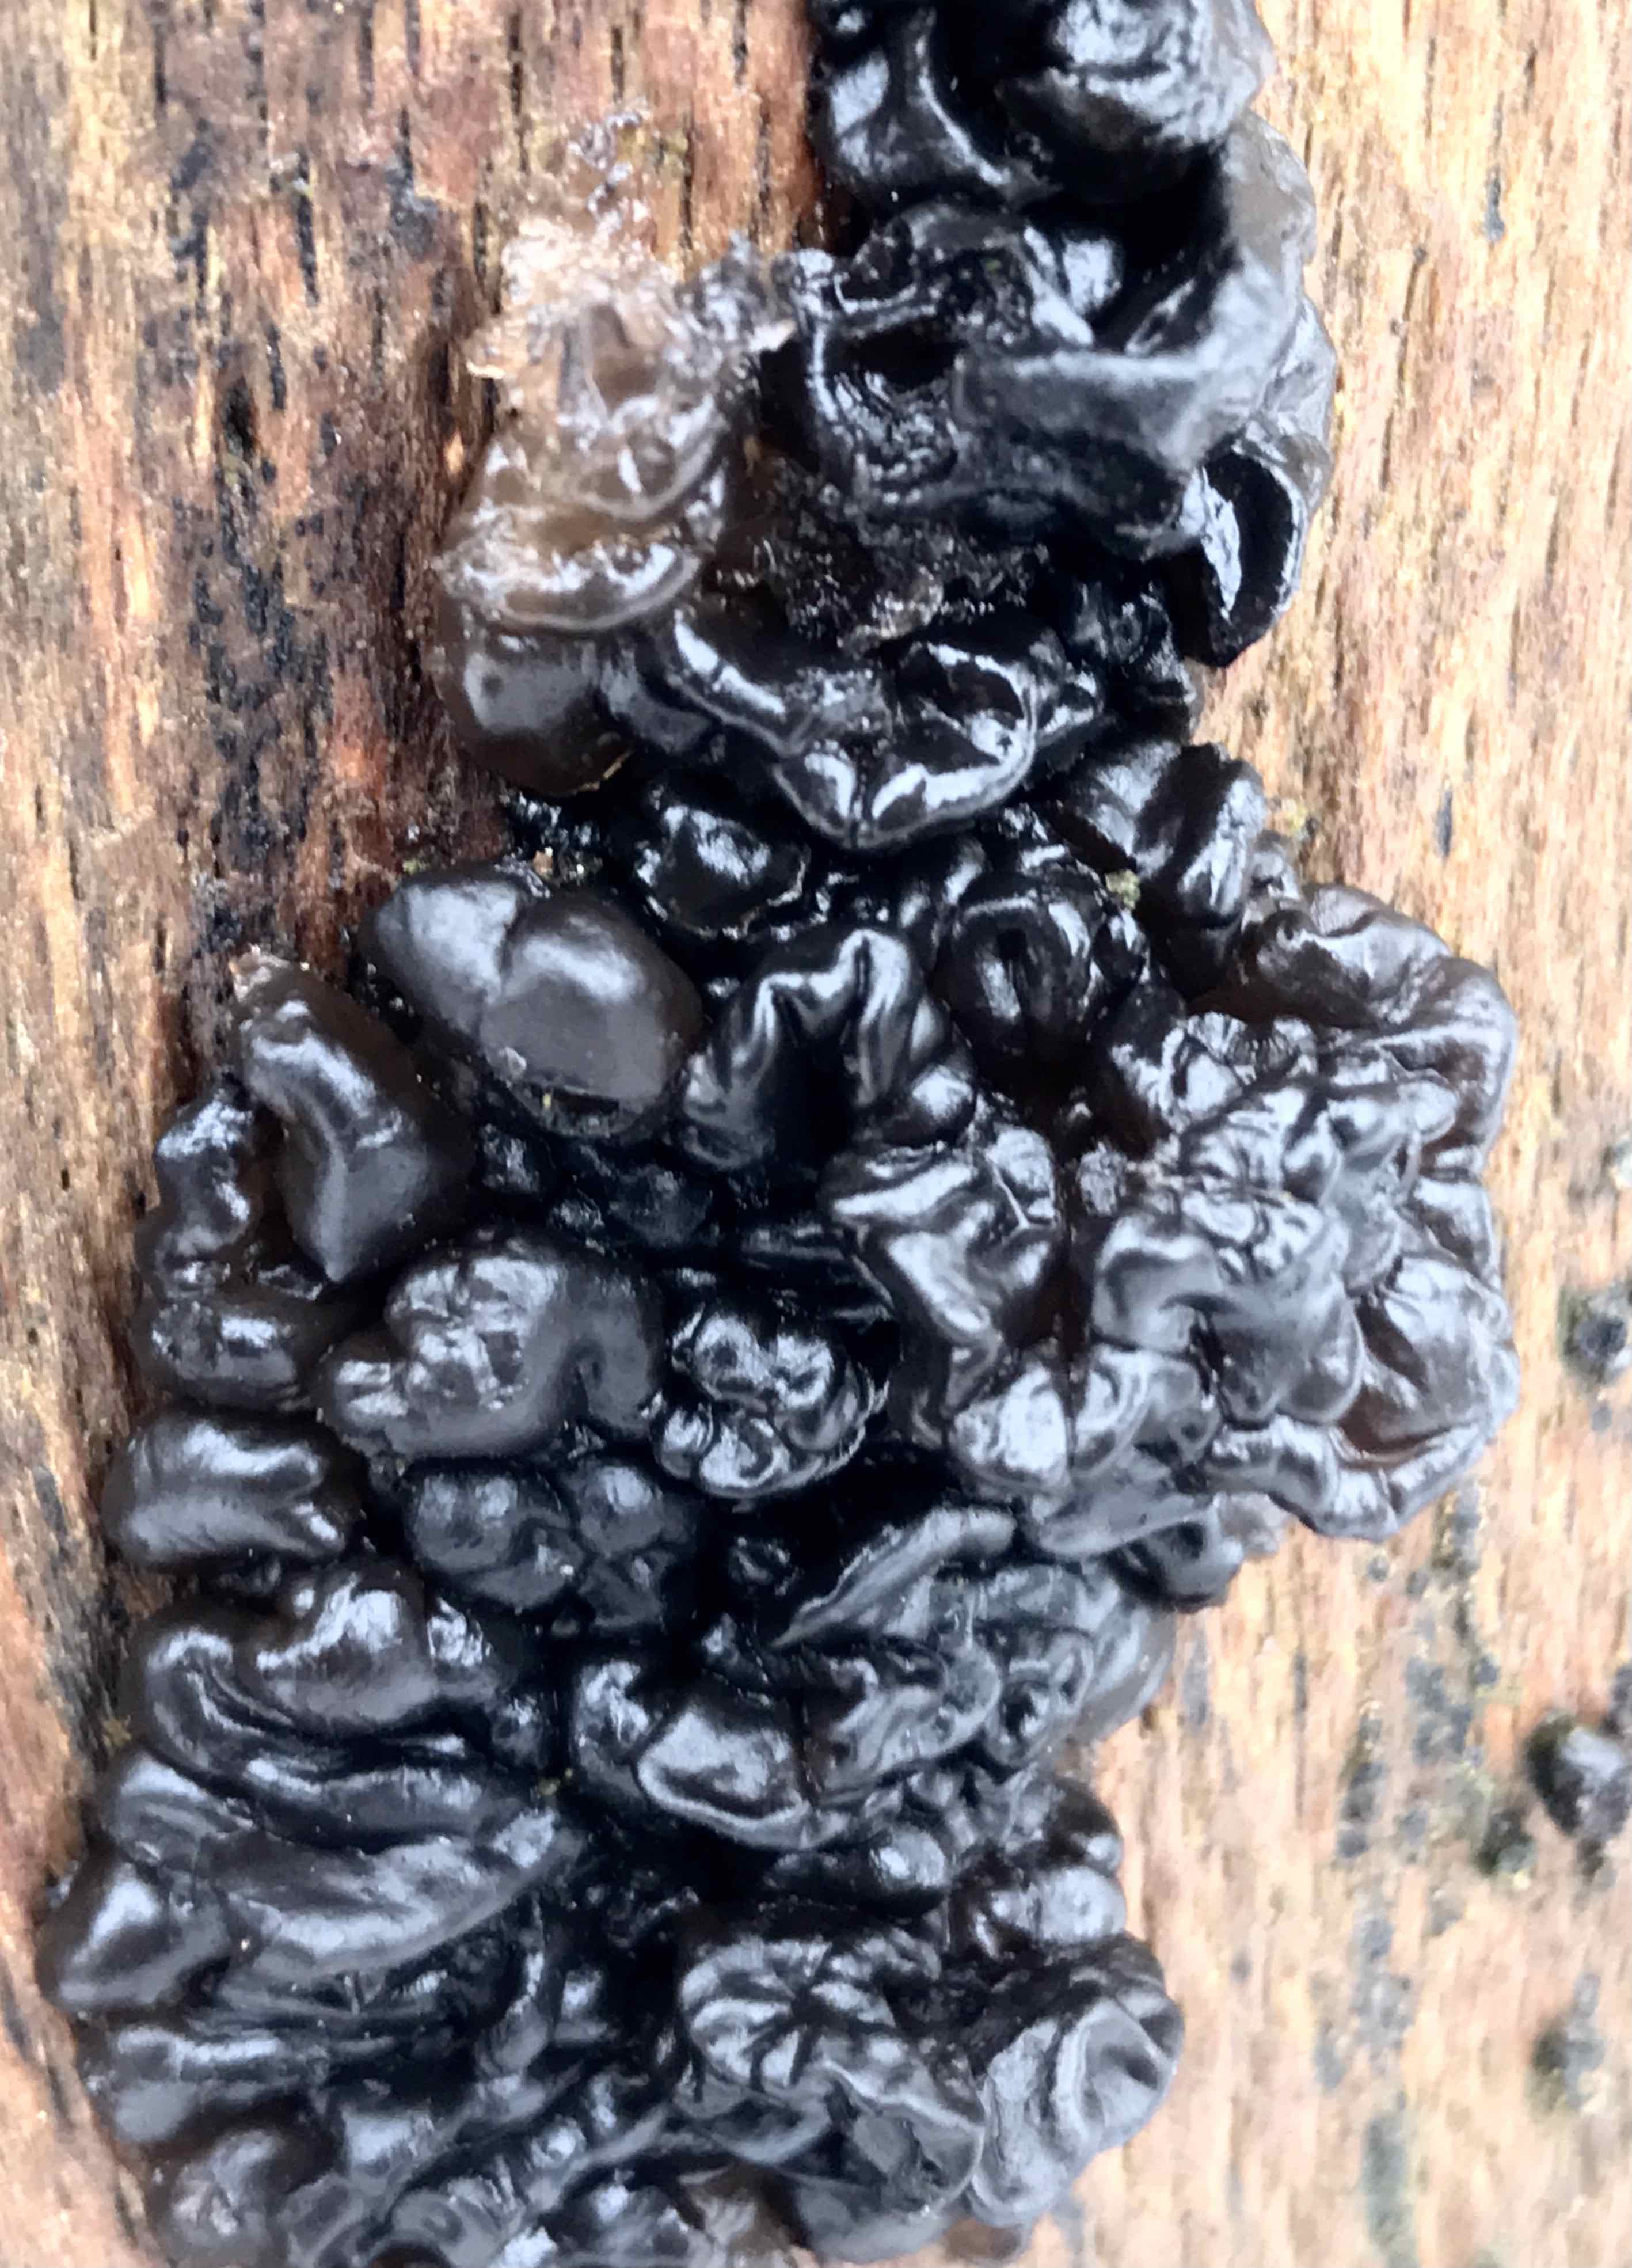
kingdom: Fungi
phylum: Basidiomycota
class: Agaricomycetes
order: Auriculariales
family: Auriculariaceae
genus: Exidia
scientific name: Exidia nigricans
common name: almindelig bævretop
